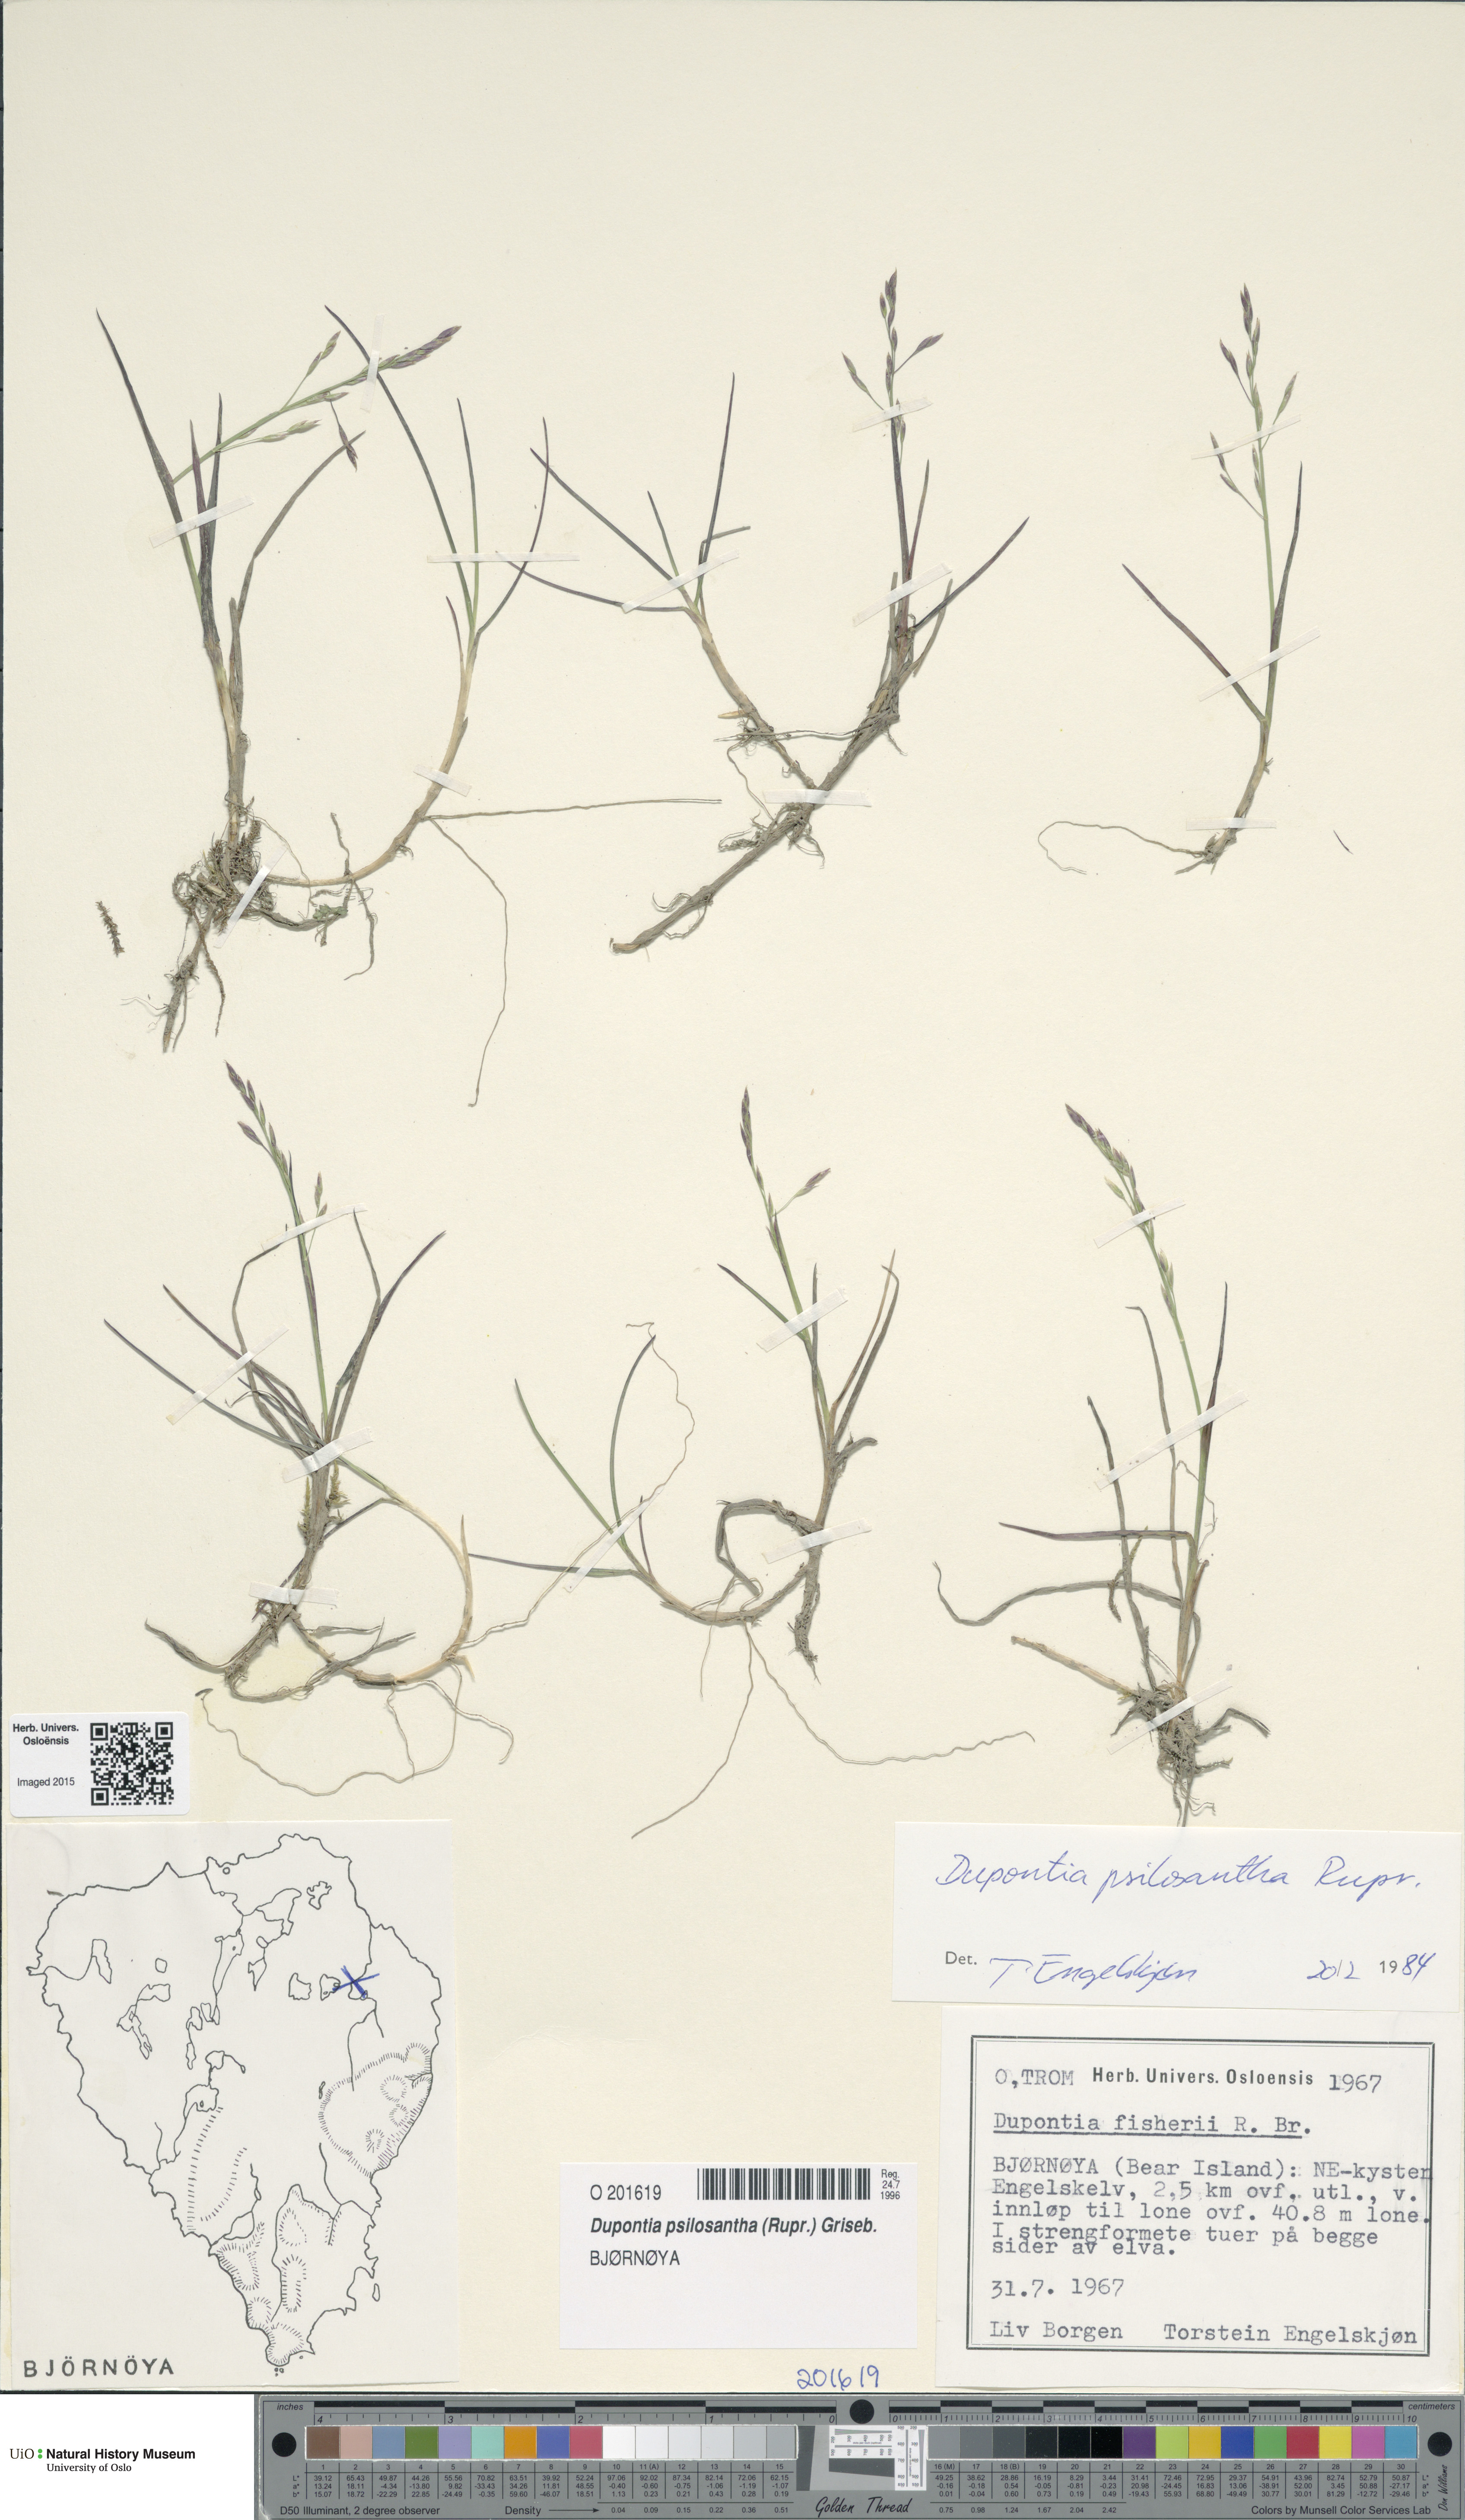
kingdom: Plantae
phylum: Tracheophyta
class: Liliopsida
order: Poales
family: Poaceae
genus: Dupontia
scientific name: Dupontia fisheri
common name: Tundra grass
